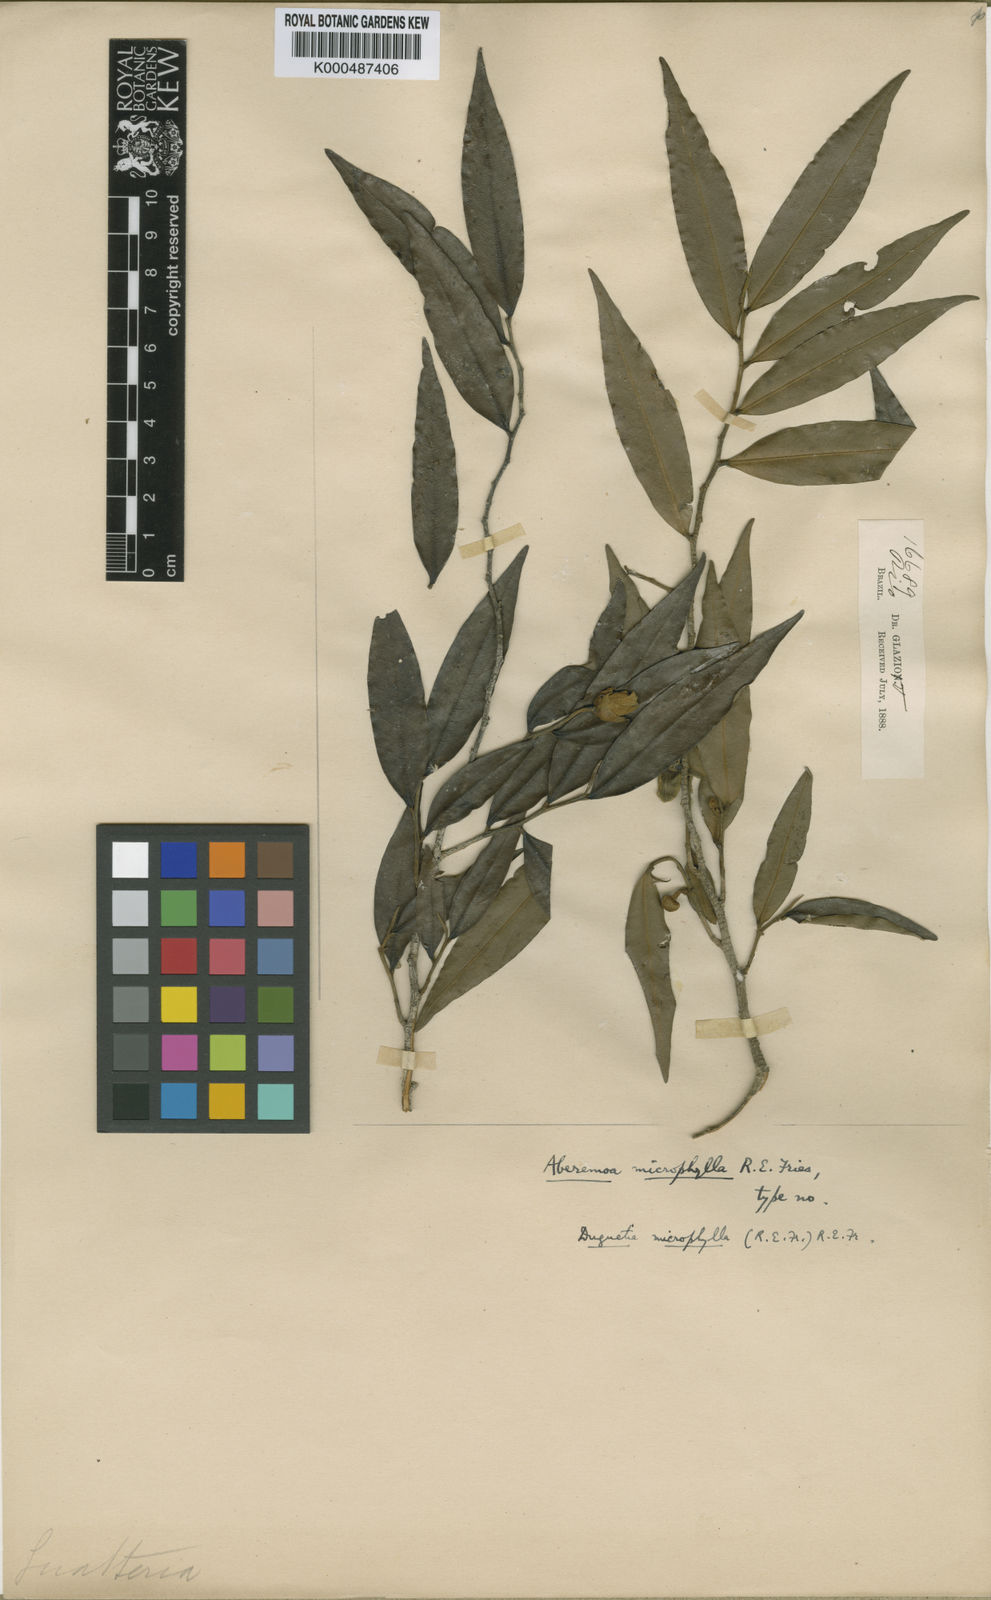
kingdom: Plantae
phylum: Tracheophyta
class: Magnoliopsida
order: Magnoliales
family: Annonaceae
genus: Duguetia
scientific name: Duguetia microphylla
